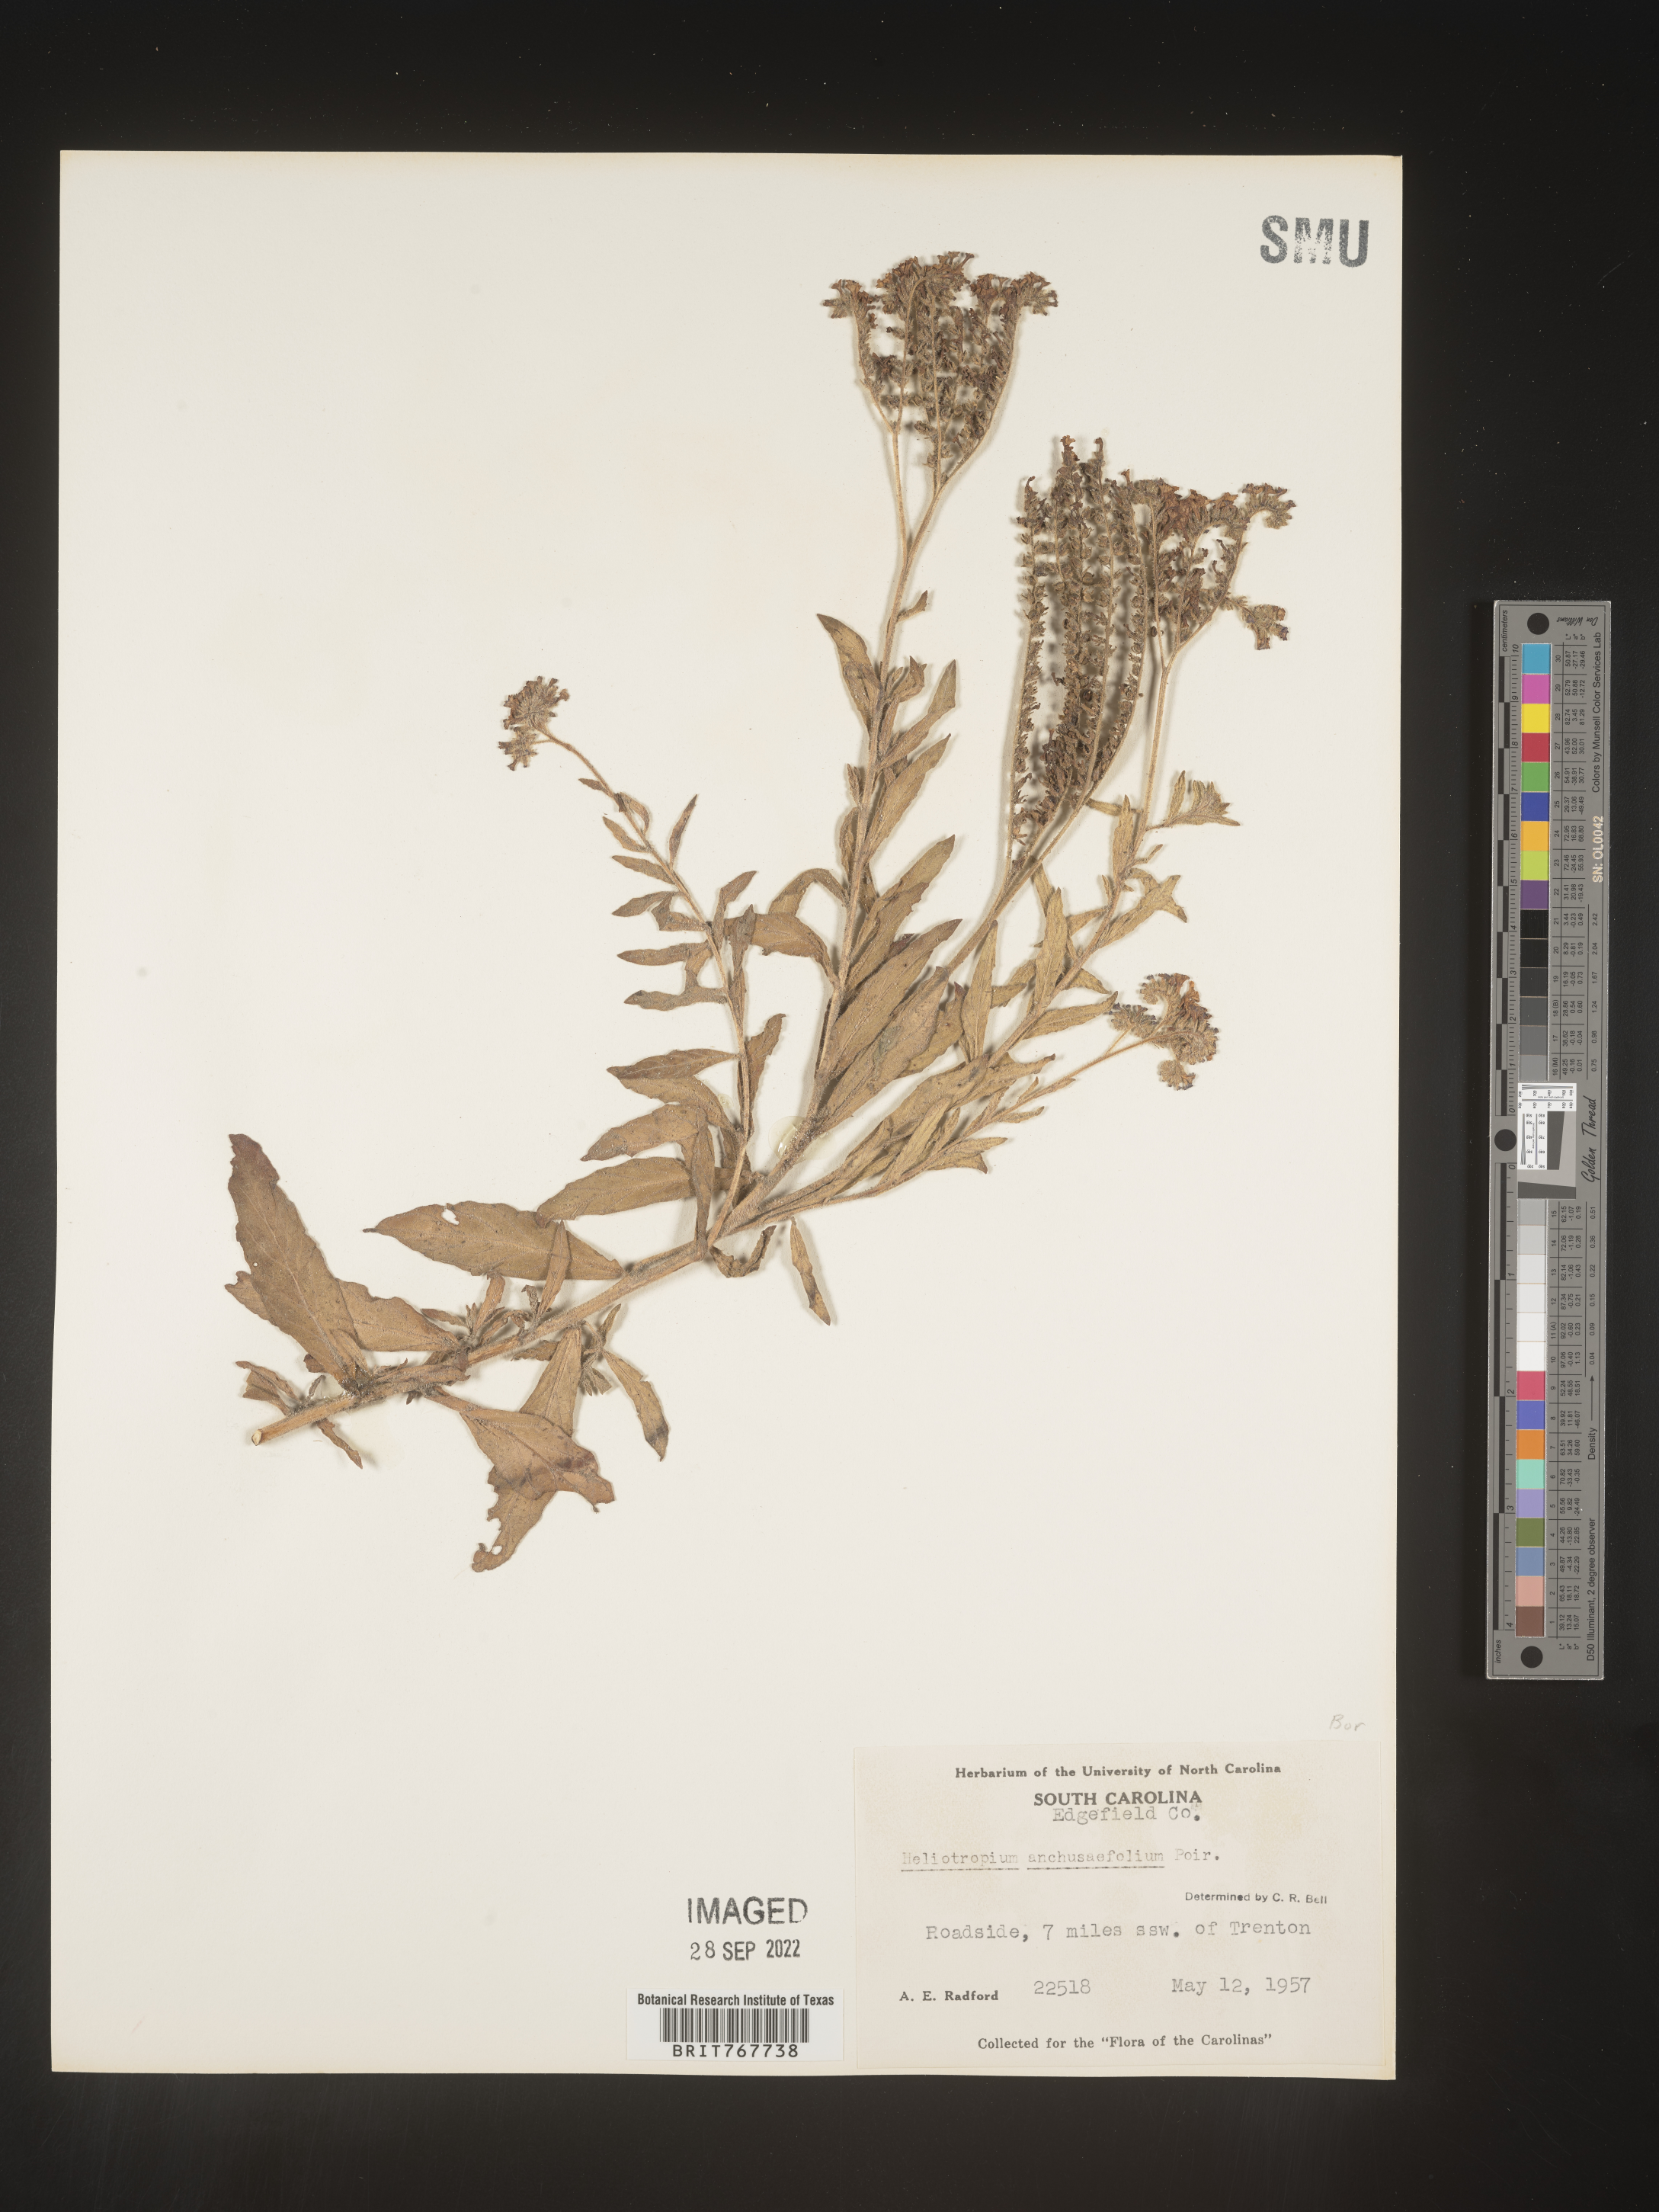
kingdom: Plantae
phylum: Tracheophyta
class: Magnoliopsida
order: Boraginales
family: Heliotropiaceae
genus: Heliotropium
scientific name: Heliotropium
